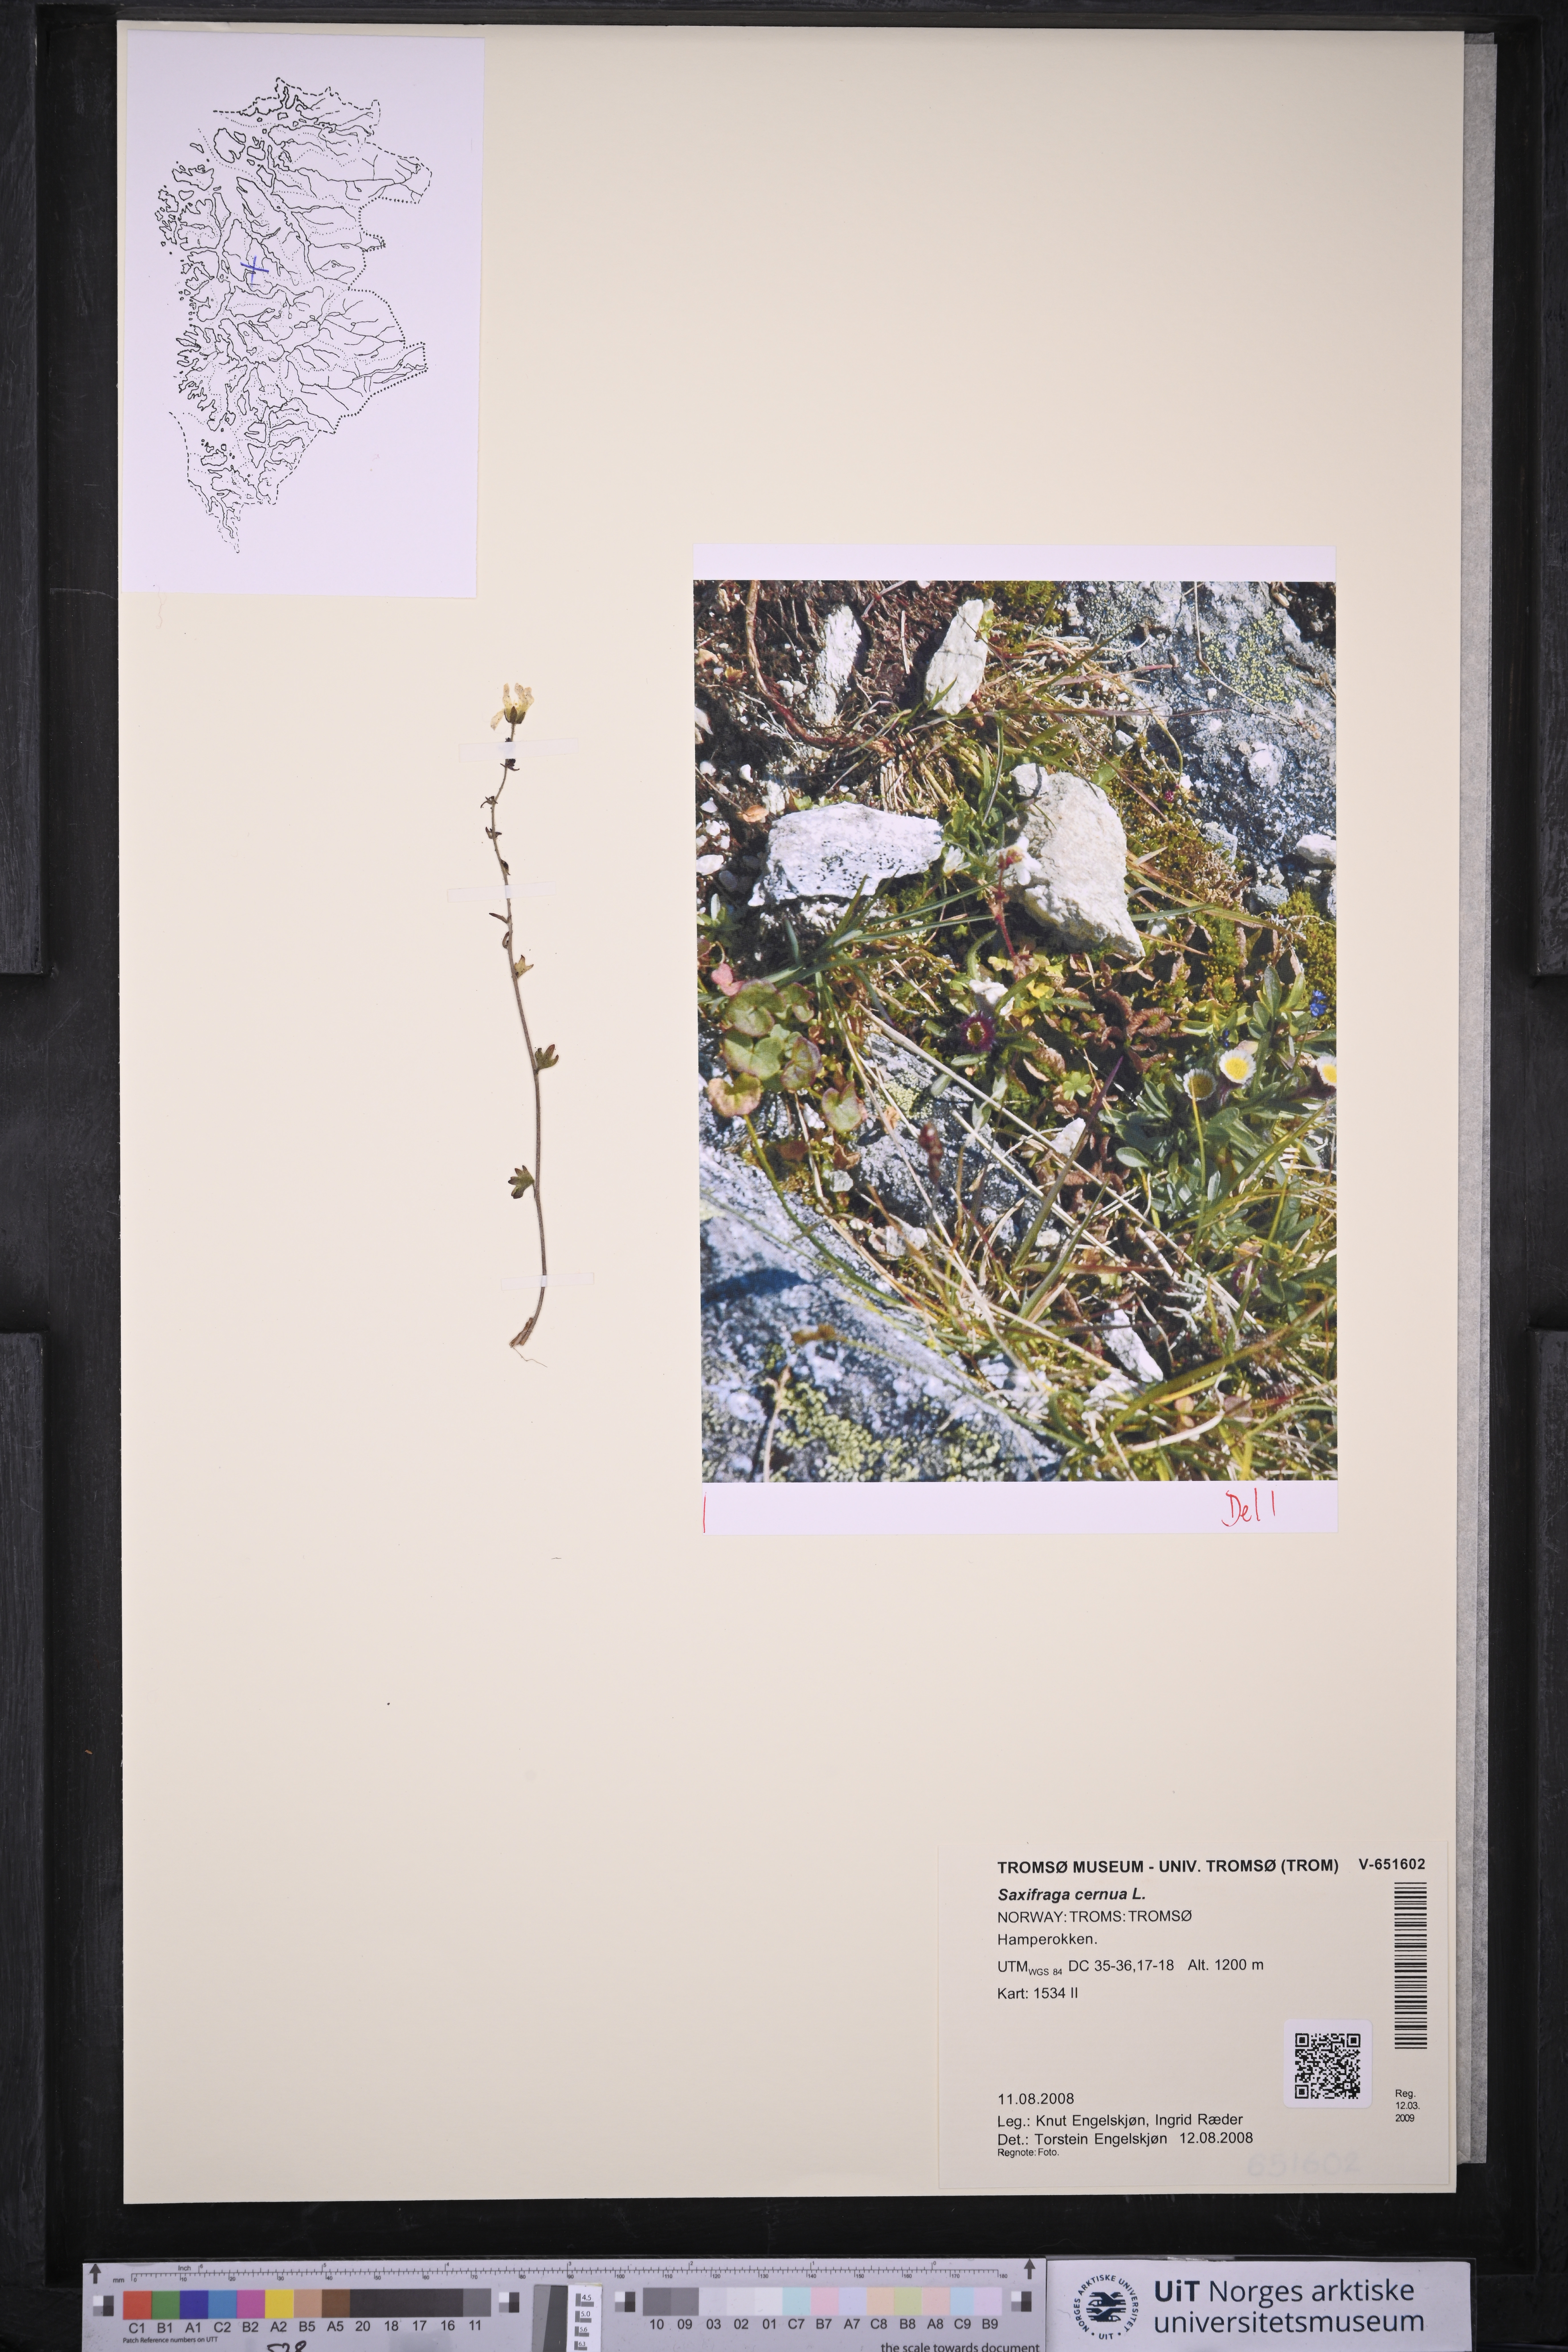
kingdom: Plantae
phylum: Tracheophyta
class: Magnoliopsida
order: Saxifragales
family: Saxifragaceae
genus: Saxifraga
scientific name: Saxifraga cernua
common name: Drooping saxifrage
